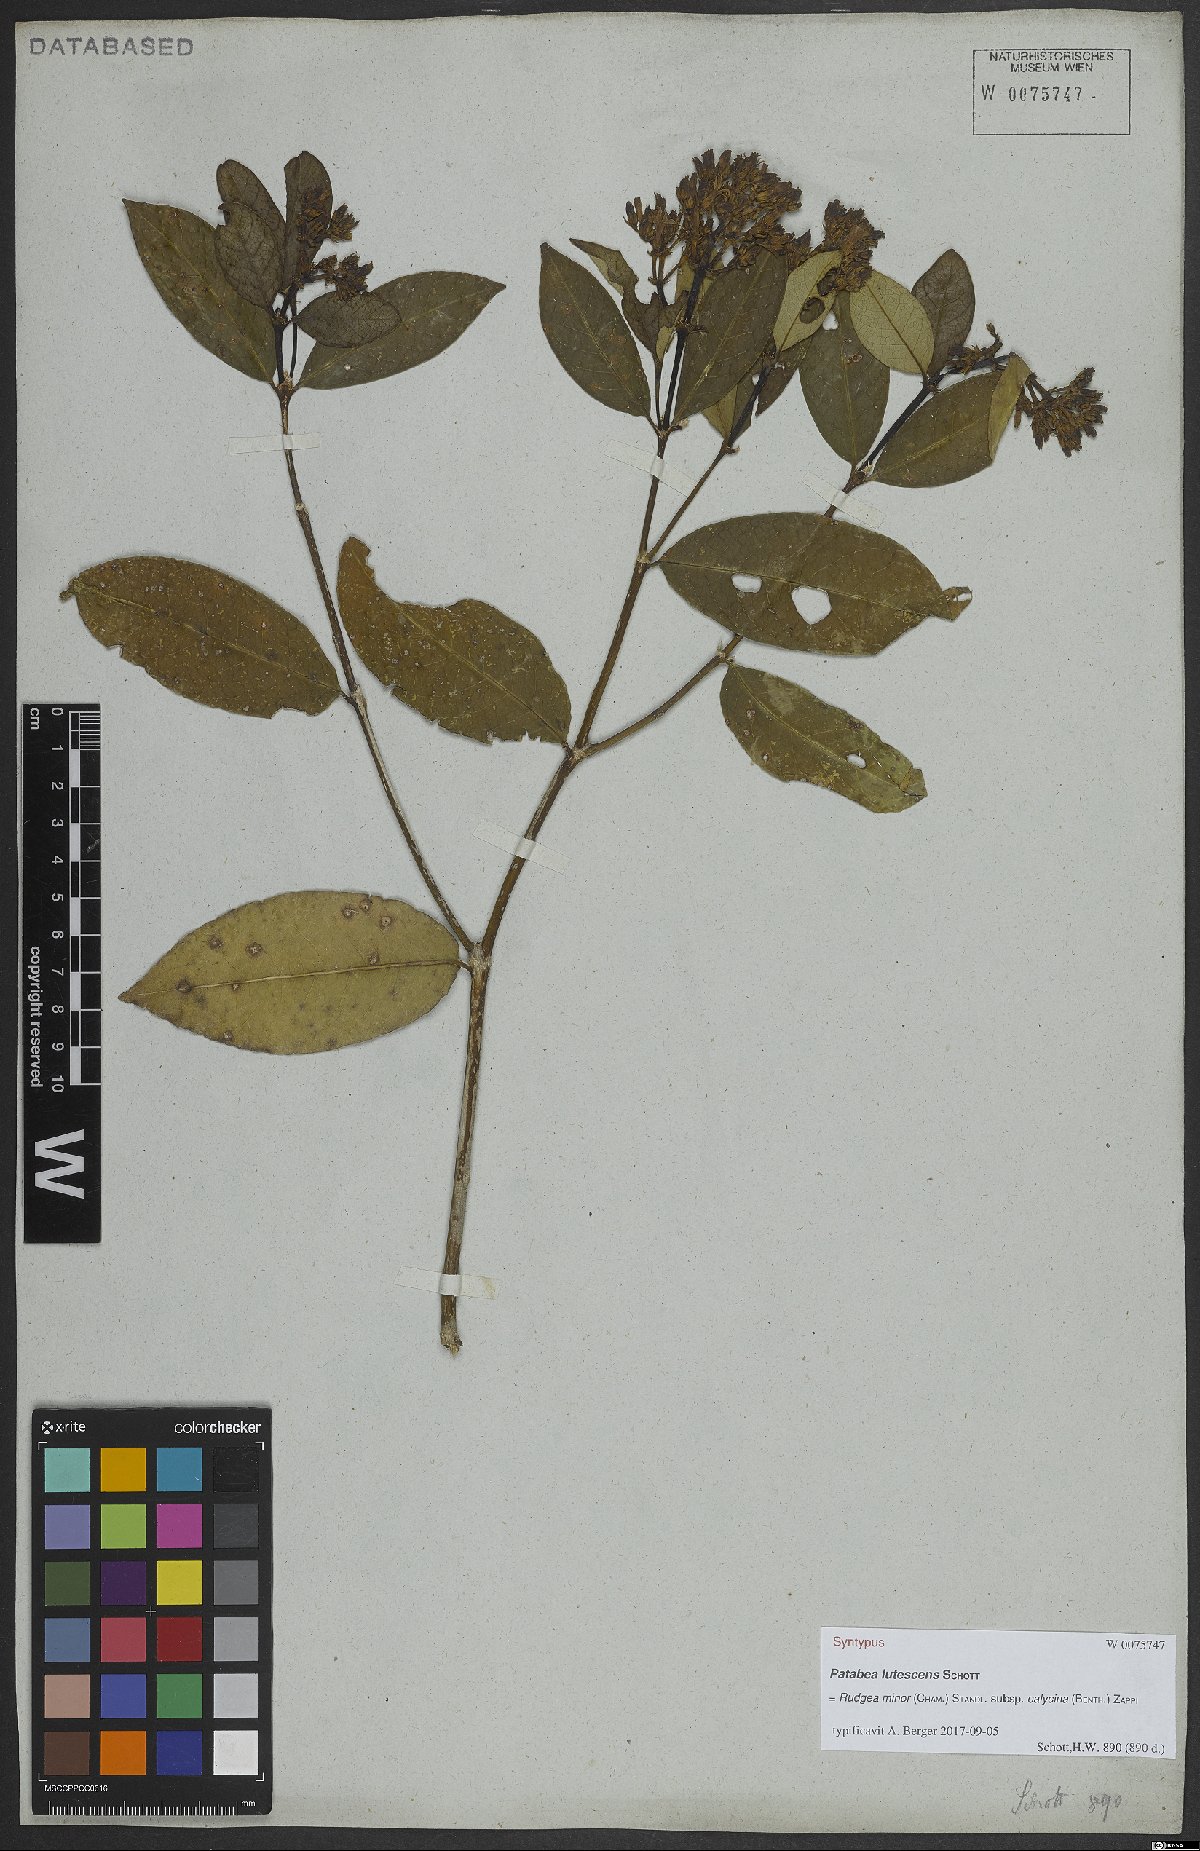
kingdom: Plantae
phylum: Tracheophyta
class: Magnoliopsida
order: Gentianales
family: Rubiaceae
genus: Rudgea
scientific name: Rudgea minor
